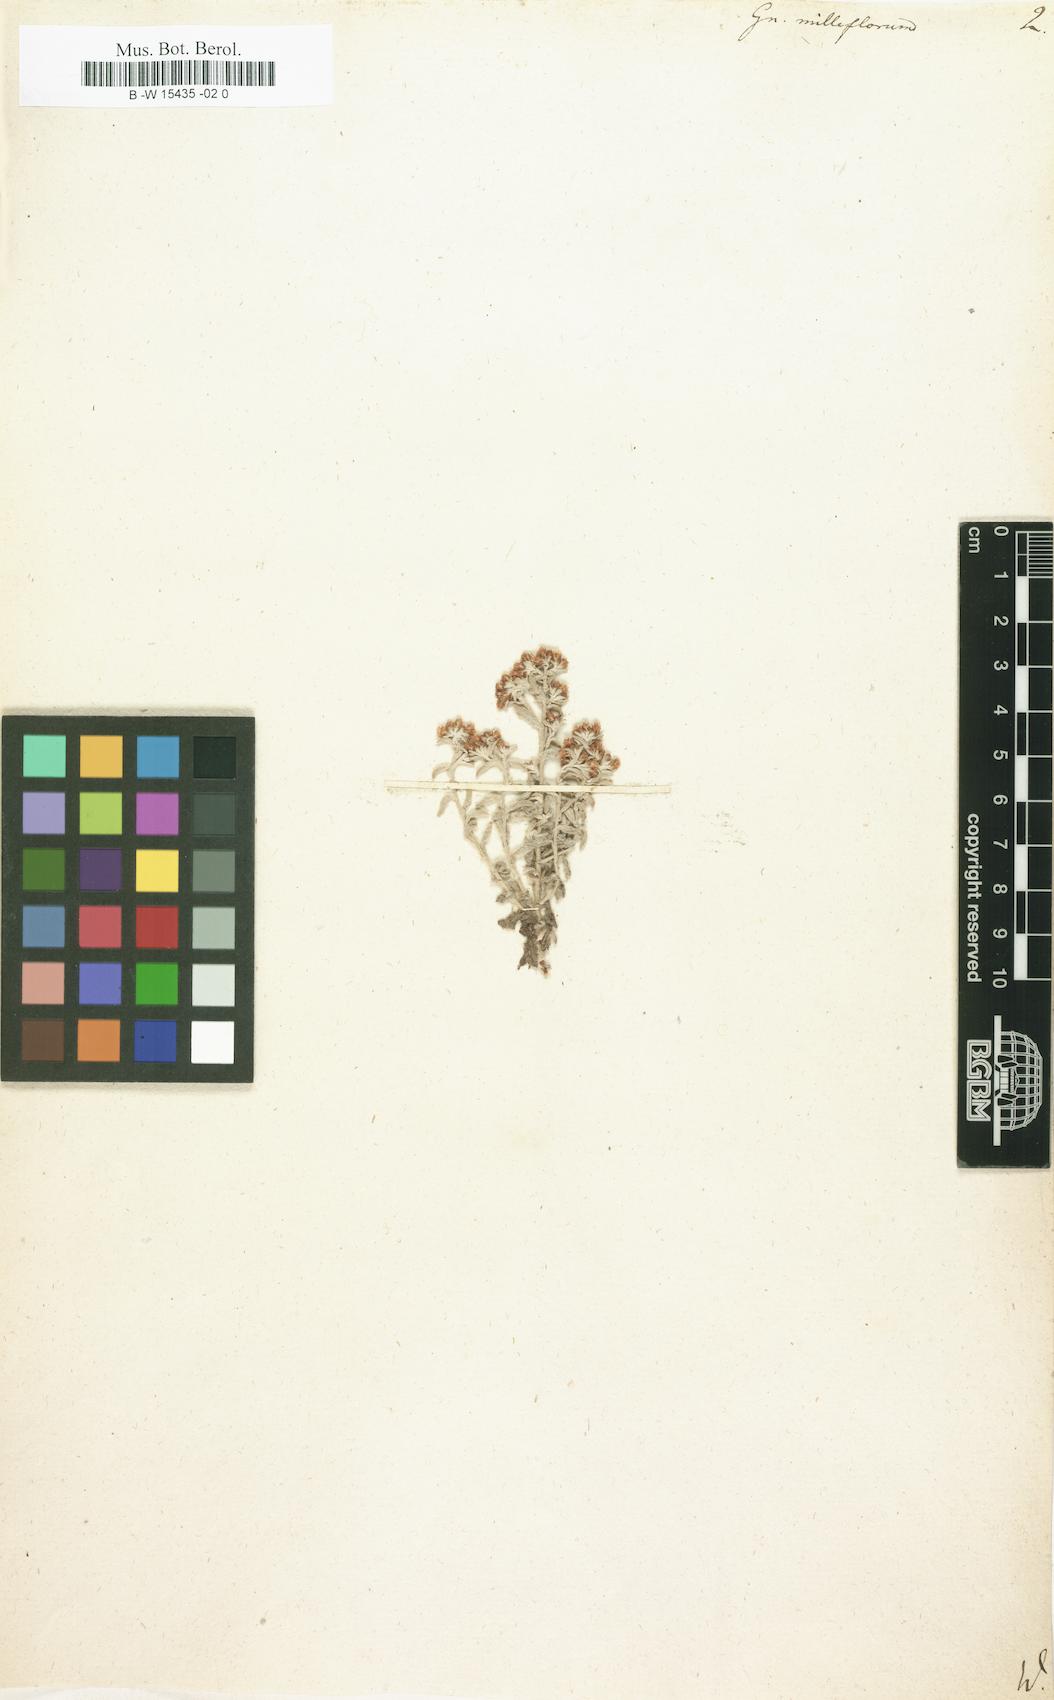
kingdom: Plantae
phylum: Tracheophyta
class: Magnoliopsida
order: Asterales
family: Asteraceae
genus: Syncarpha
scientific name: Syncarpha milleflora
